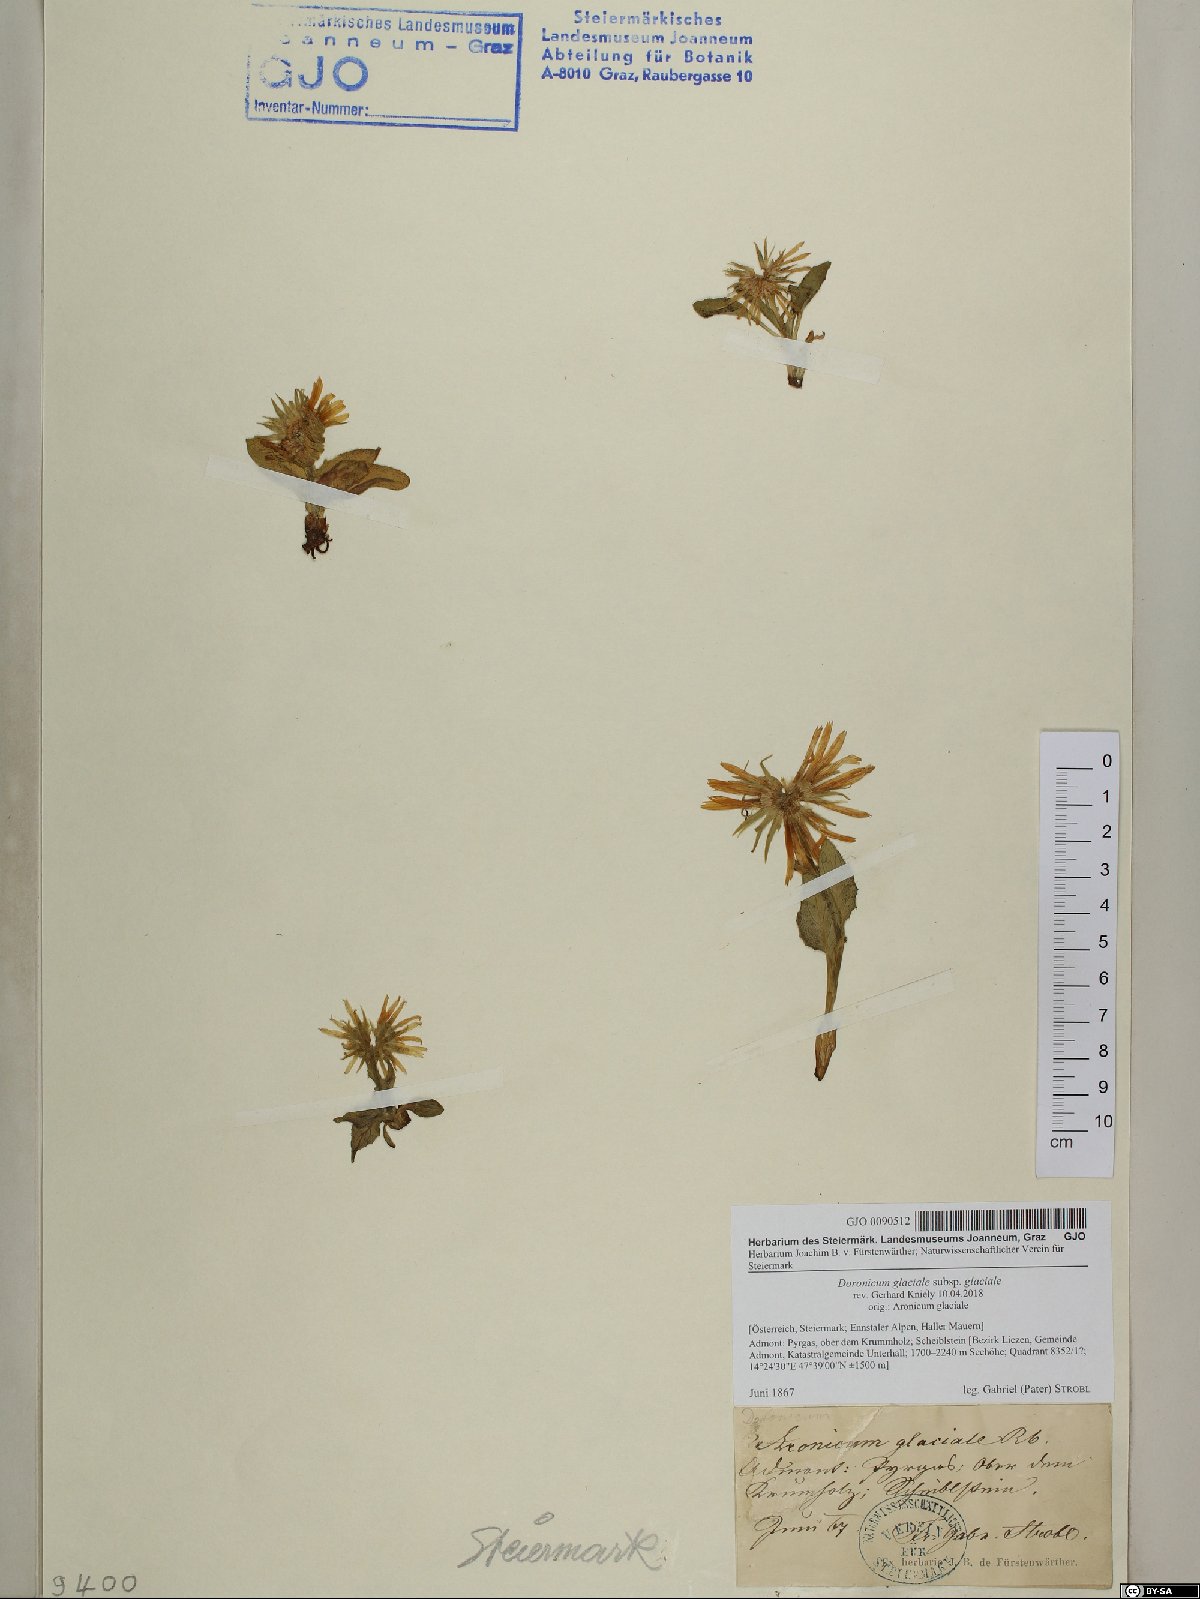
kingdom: Plantae
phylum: Tracheophyta
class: Magnoliopsida
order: Asterales
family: Asteraceae
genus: Doronicum
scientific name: Doronicum glaciale
